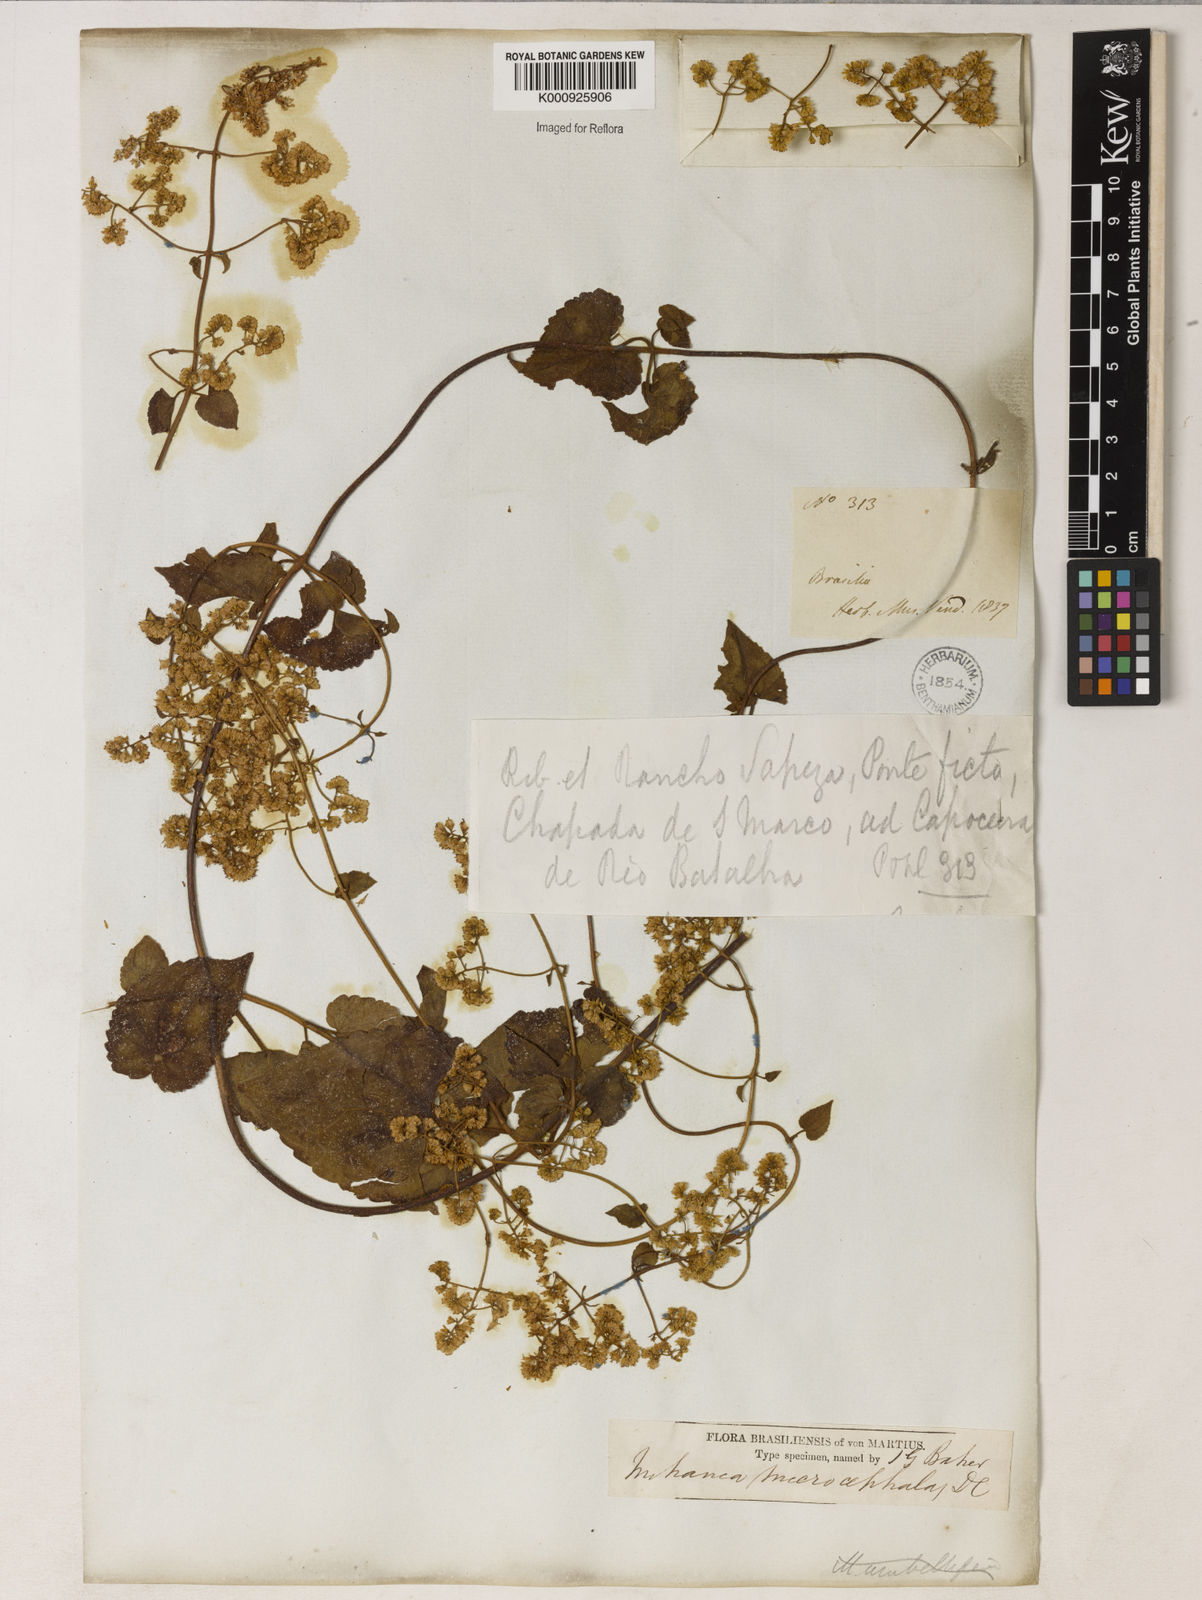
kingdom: Plantae
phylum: Tracheophyta
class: Magnoliopsida
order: Asterales
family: Asteraceae
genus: Mikania
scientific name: Mikania microcephala
